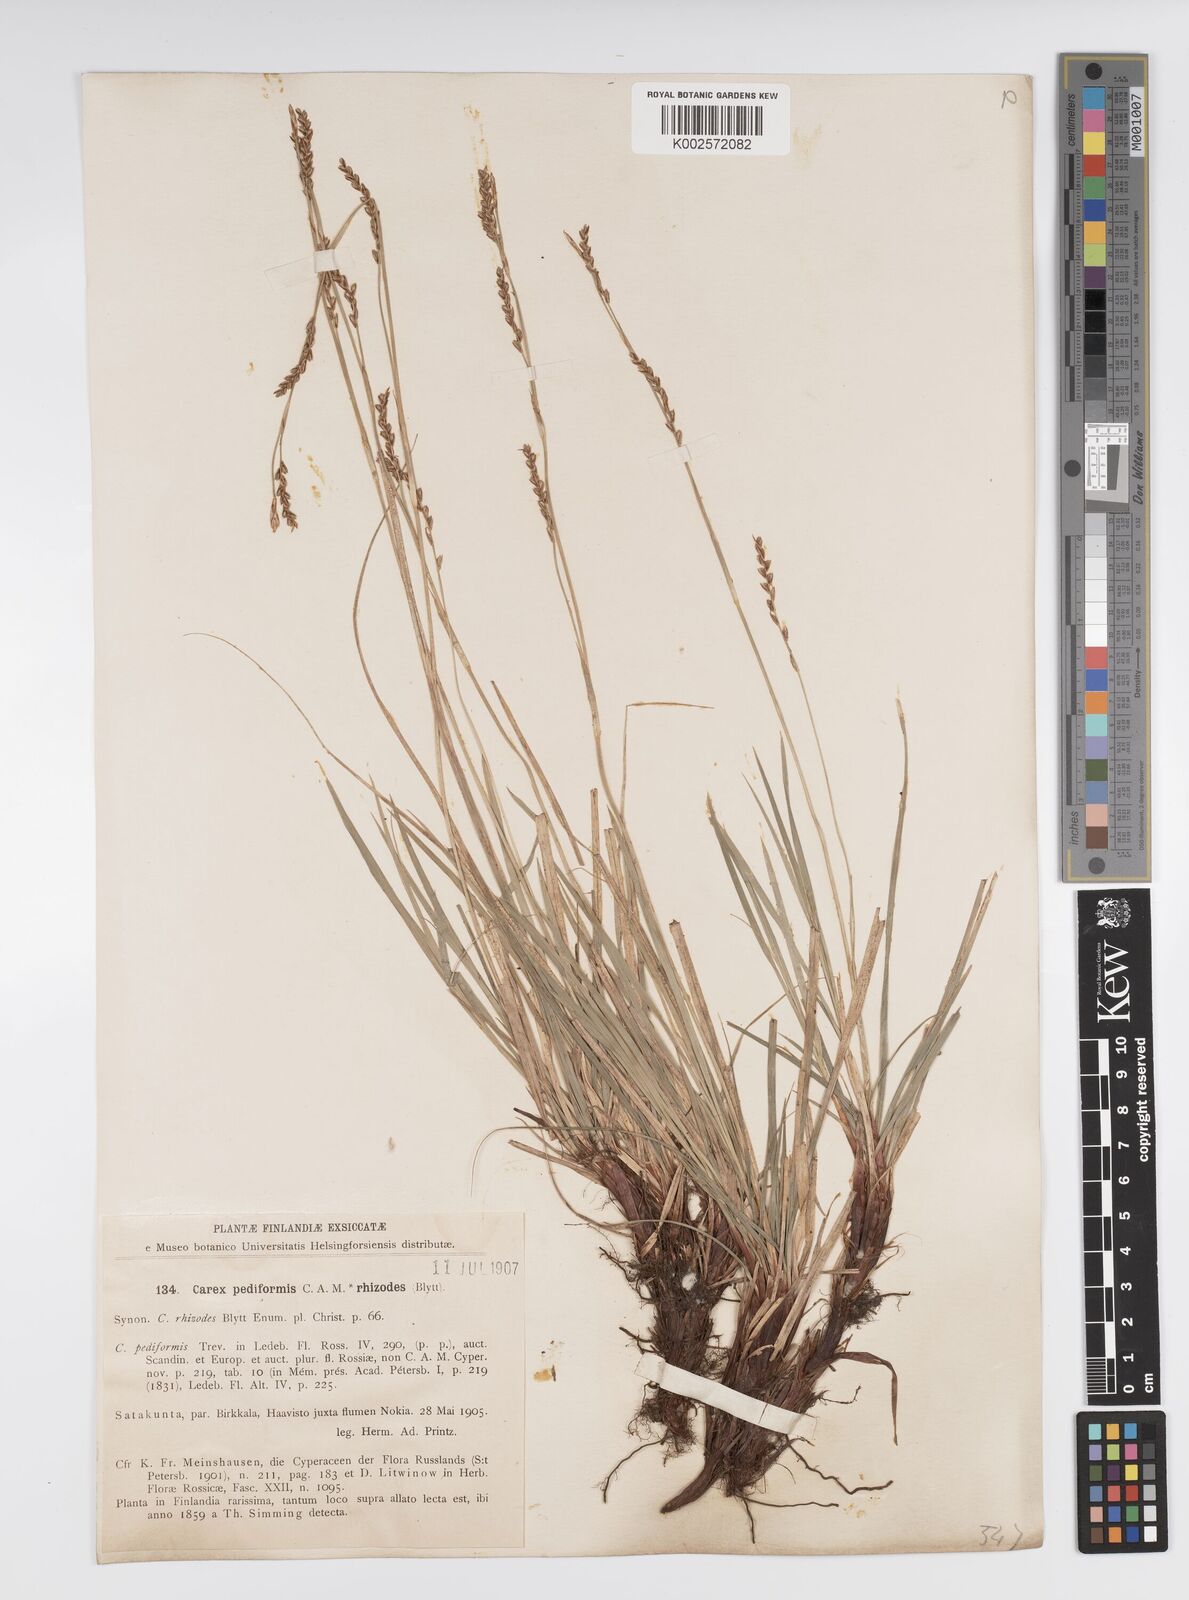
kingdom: Plantae
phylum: Tracheophyta
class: Liliopsida
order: Poales
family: Cyperaceae
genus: Carex
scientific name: Carex pediformis
